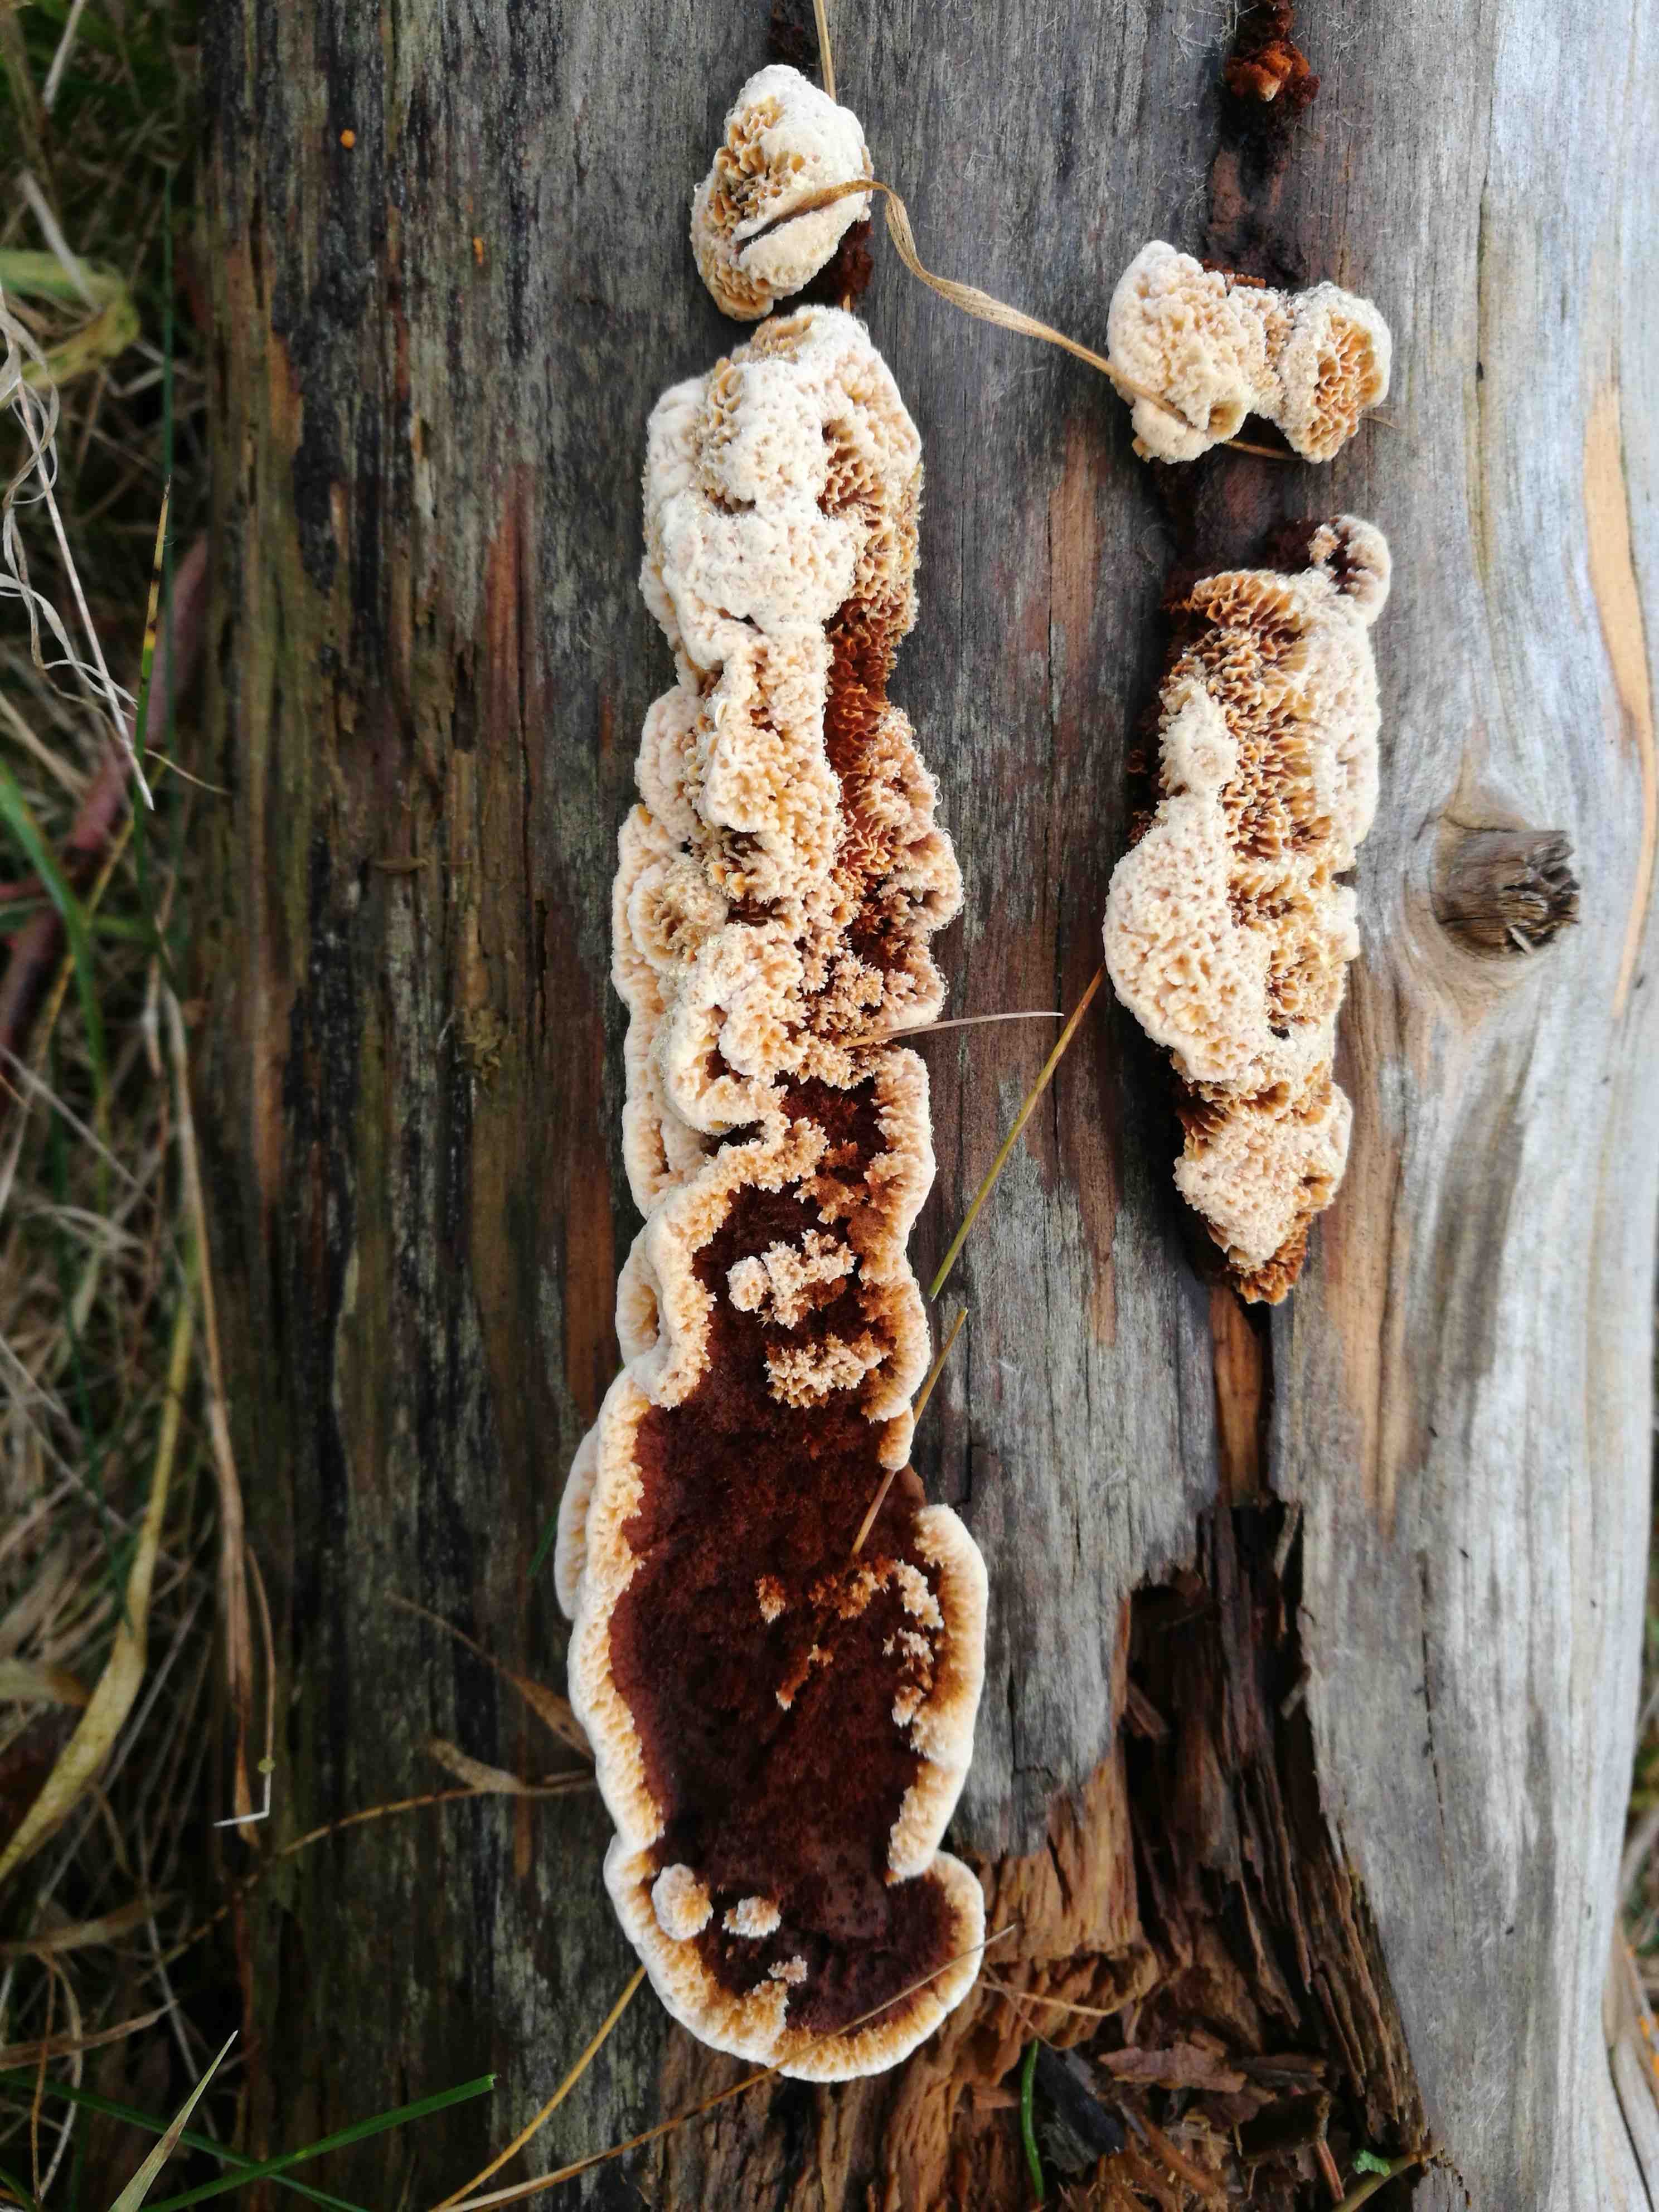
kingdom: Fungi
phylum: Basidiomycota
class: Agaricomycetes
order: Gloeophyllales
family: Gloeophyllaceae
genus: Gloeophyllum
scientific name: Gloeophyllum sepiarium
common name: fyrre-korkhat
